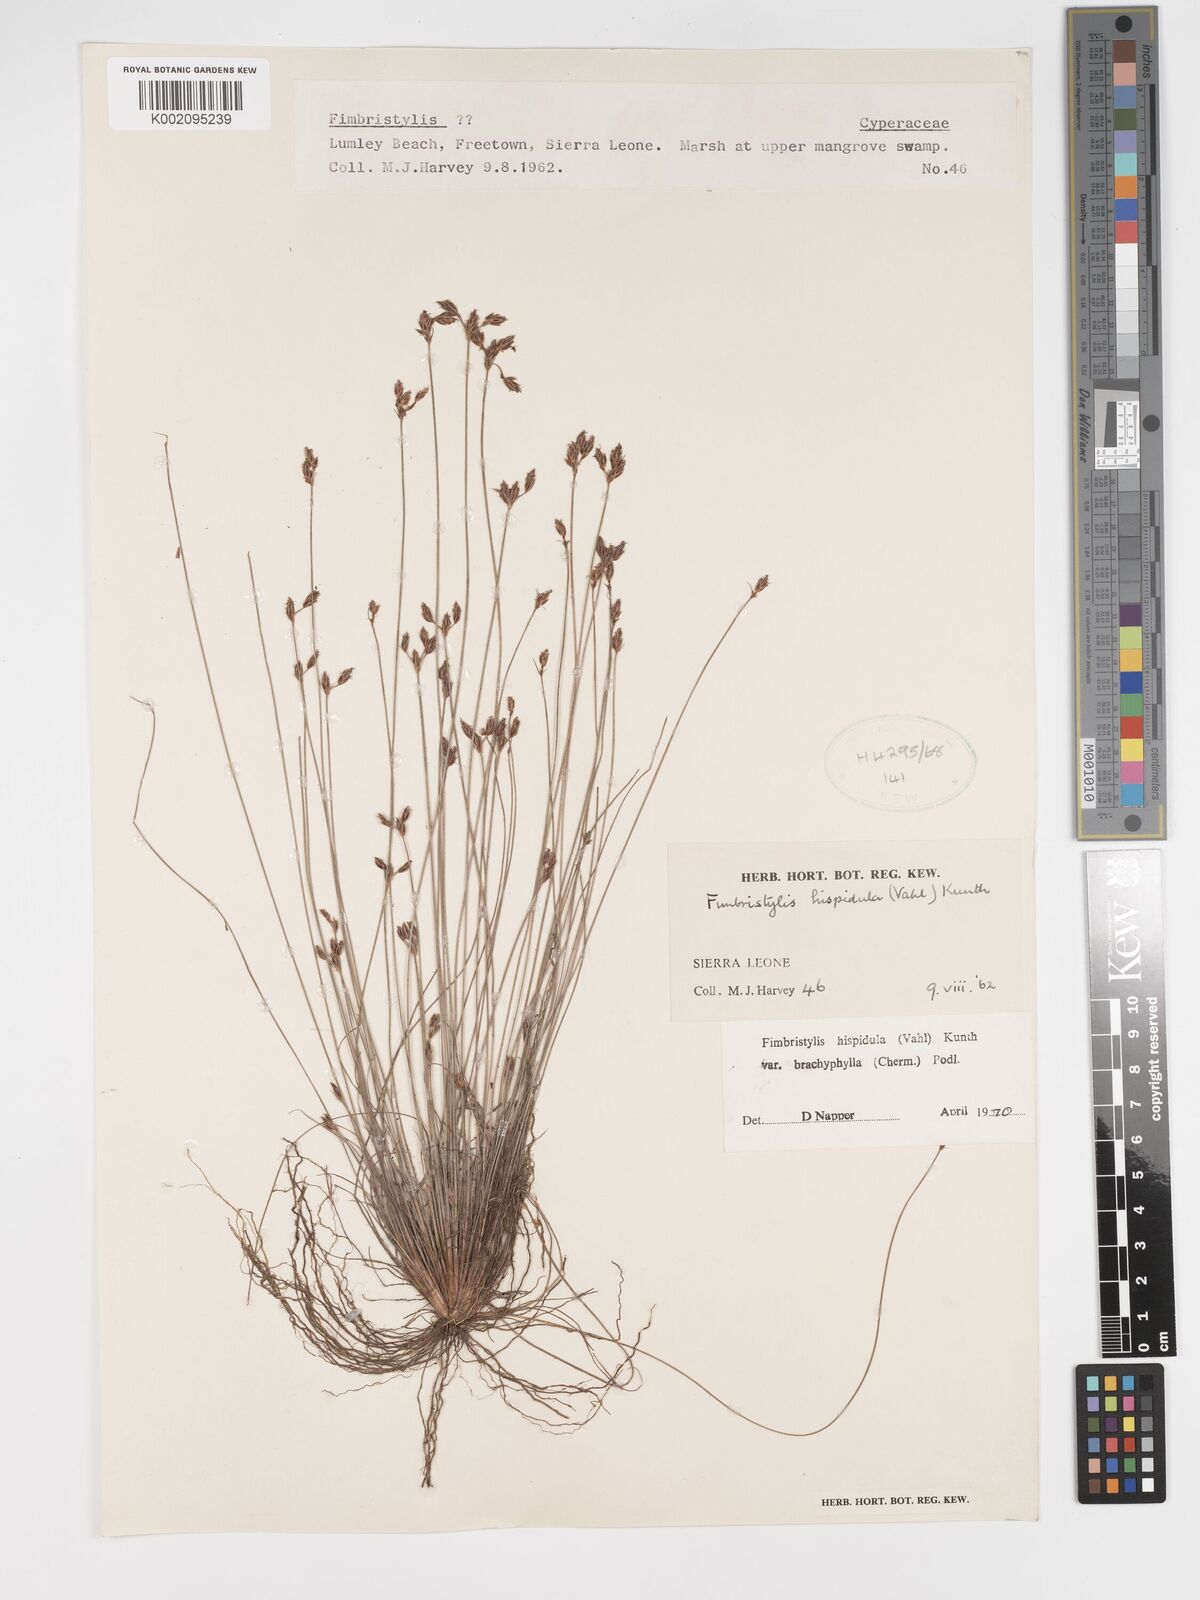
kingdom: Plantae
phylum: Tracheophyta
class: Liliopsida
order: Poales
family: Cyperaceae
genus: Bulbostylis
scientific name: Bulbostylis hispidula
